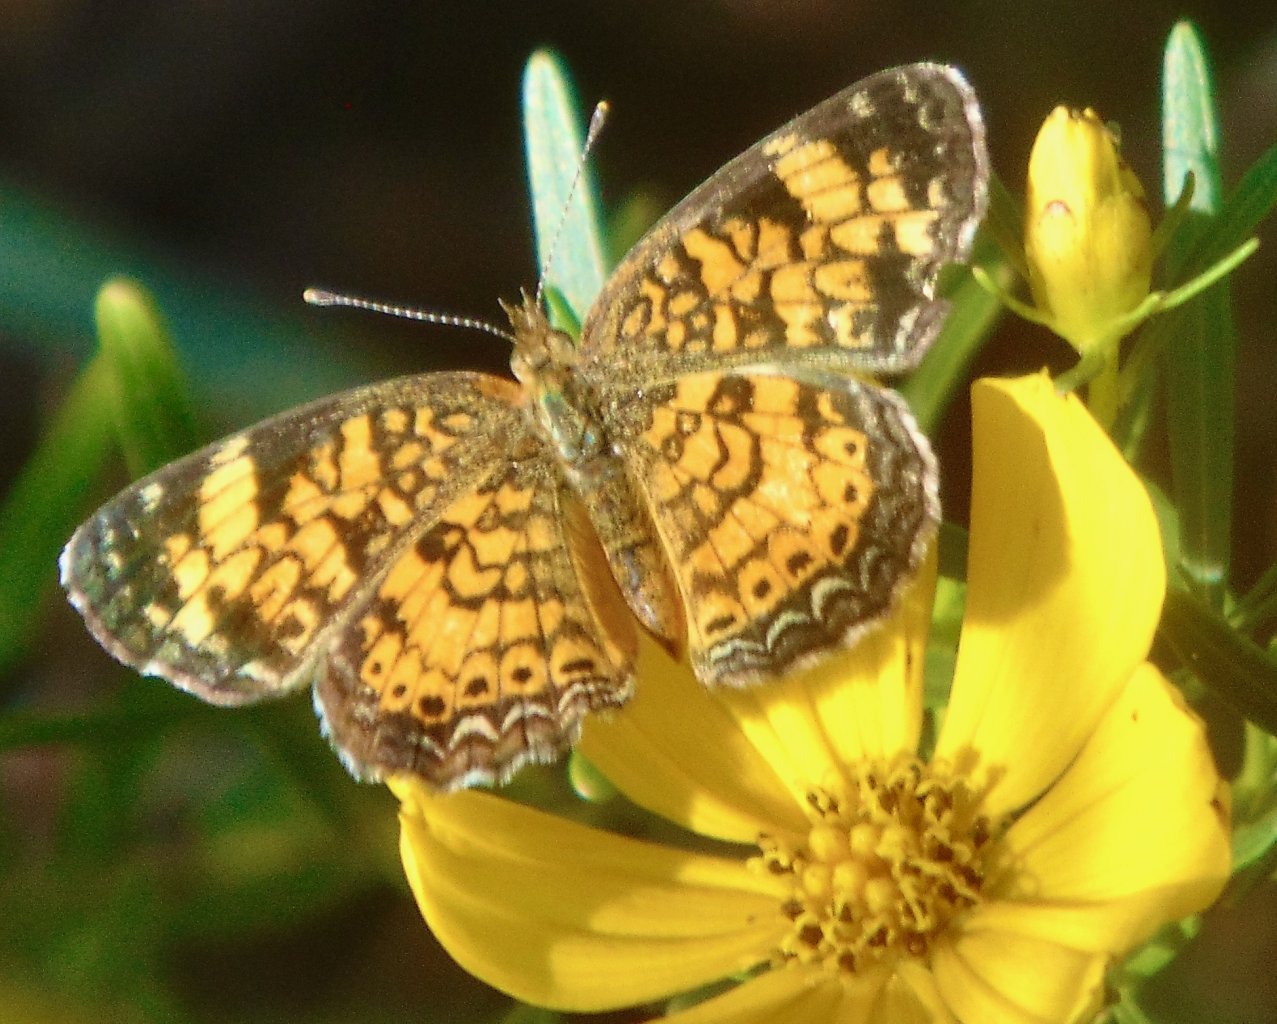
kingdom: Animalia
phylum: Arthropoda
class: Insecta
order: Lepidoptera
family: Nymphalidae
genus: Phyciodes
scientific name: Phyciodes tharos
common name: Pearl Crescent
